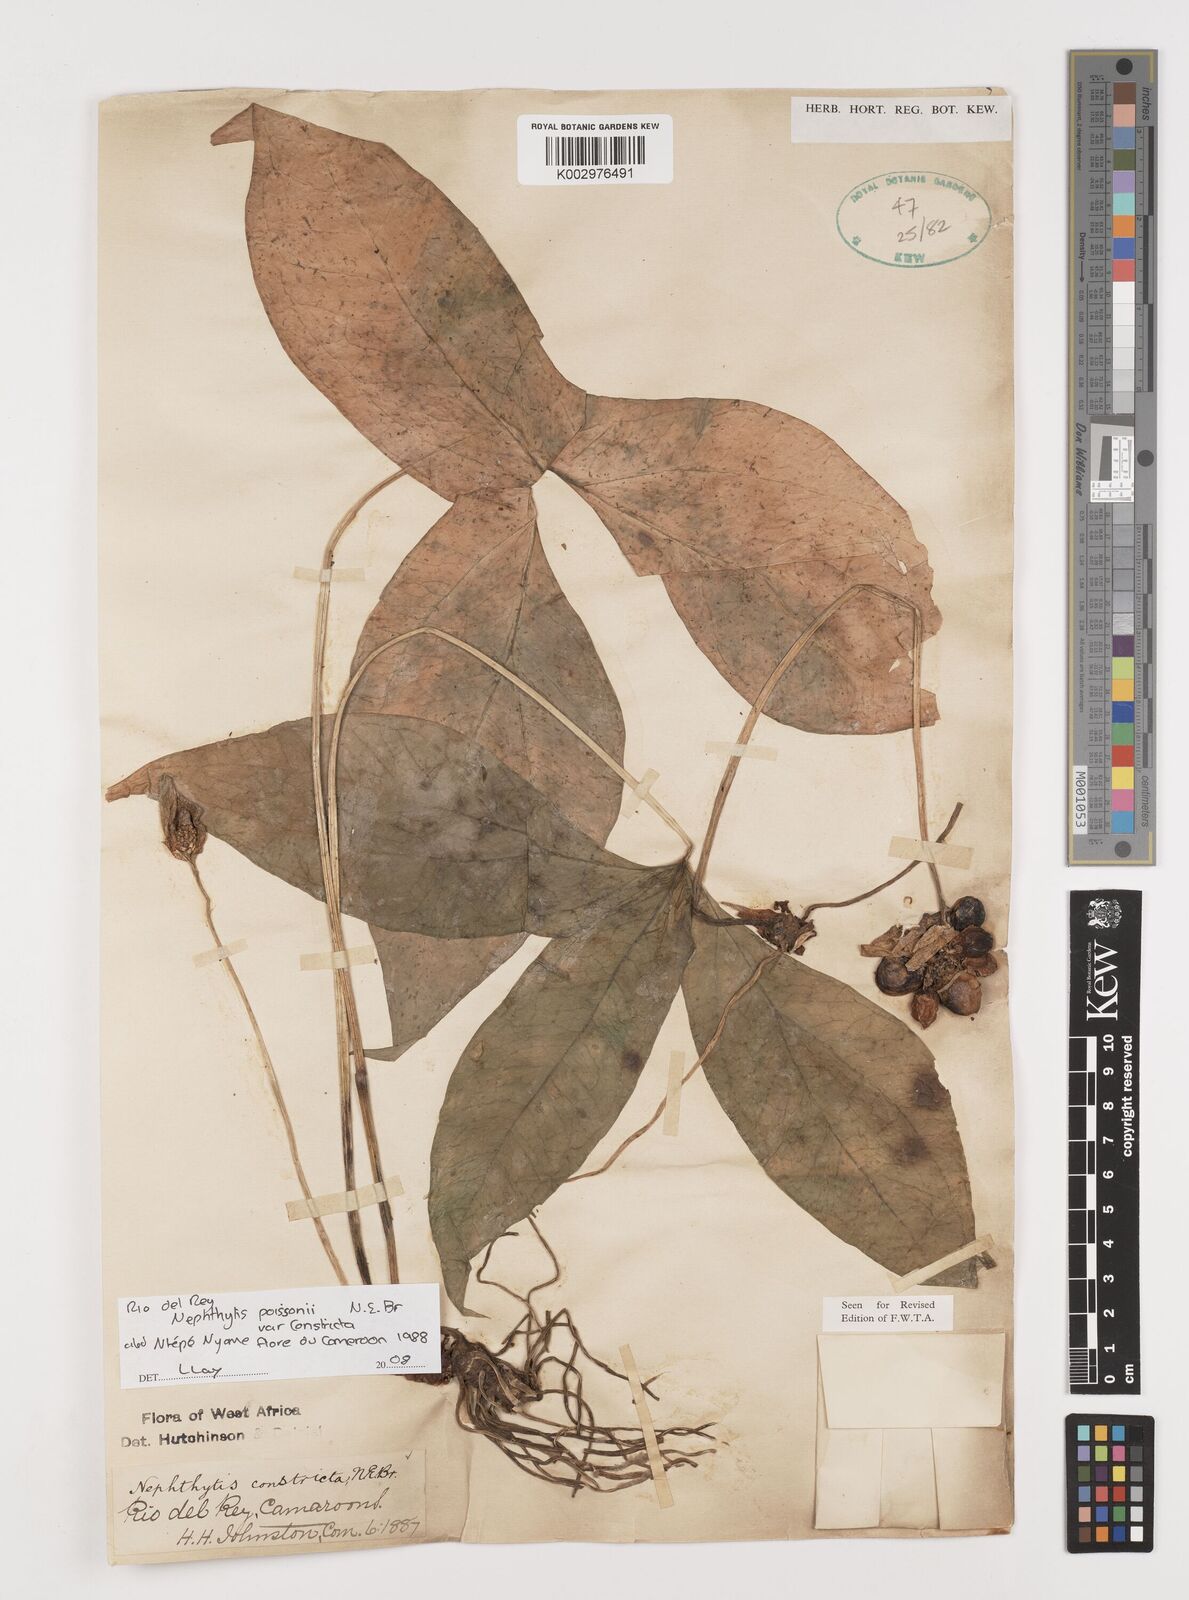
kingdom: Plantae
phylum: Tracheophyta
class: Liliopsida
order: Alismatales
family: Araceae
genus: Nephthytis
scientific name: Nephthytis poissonii
